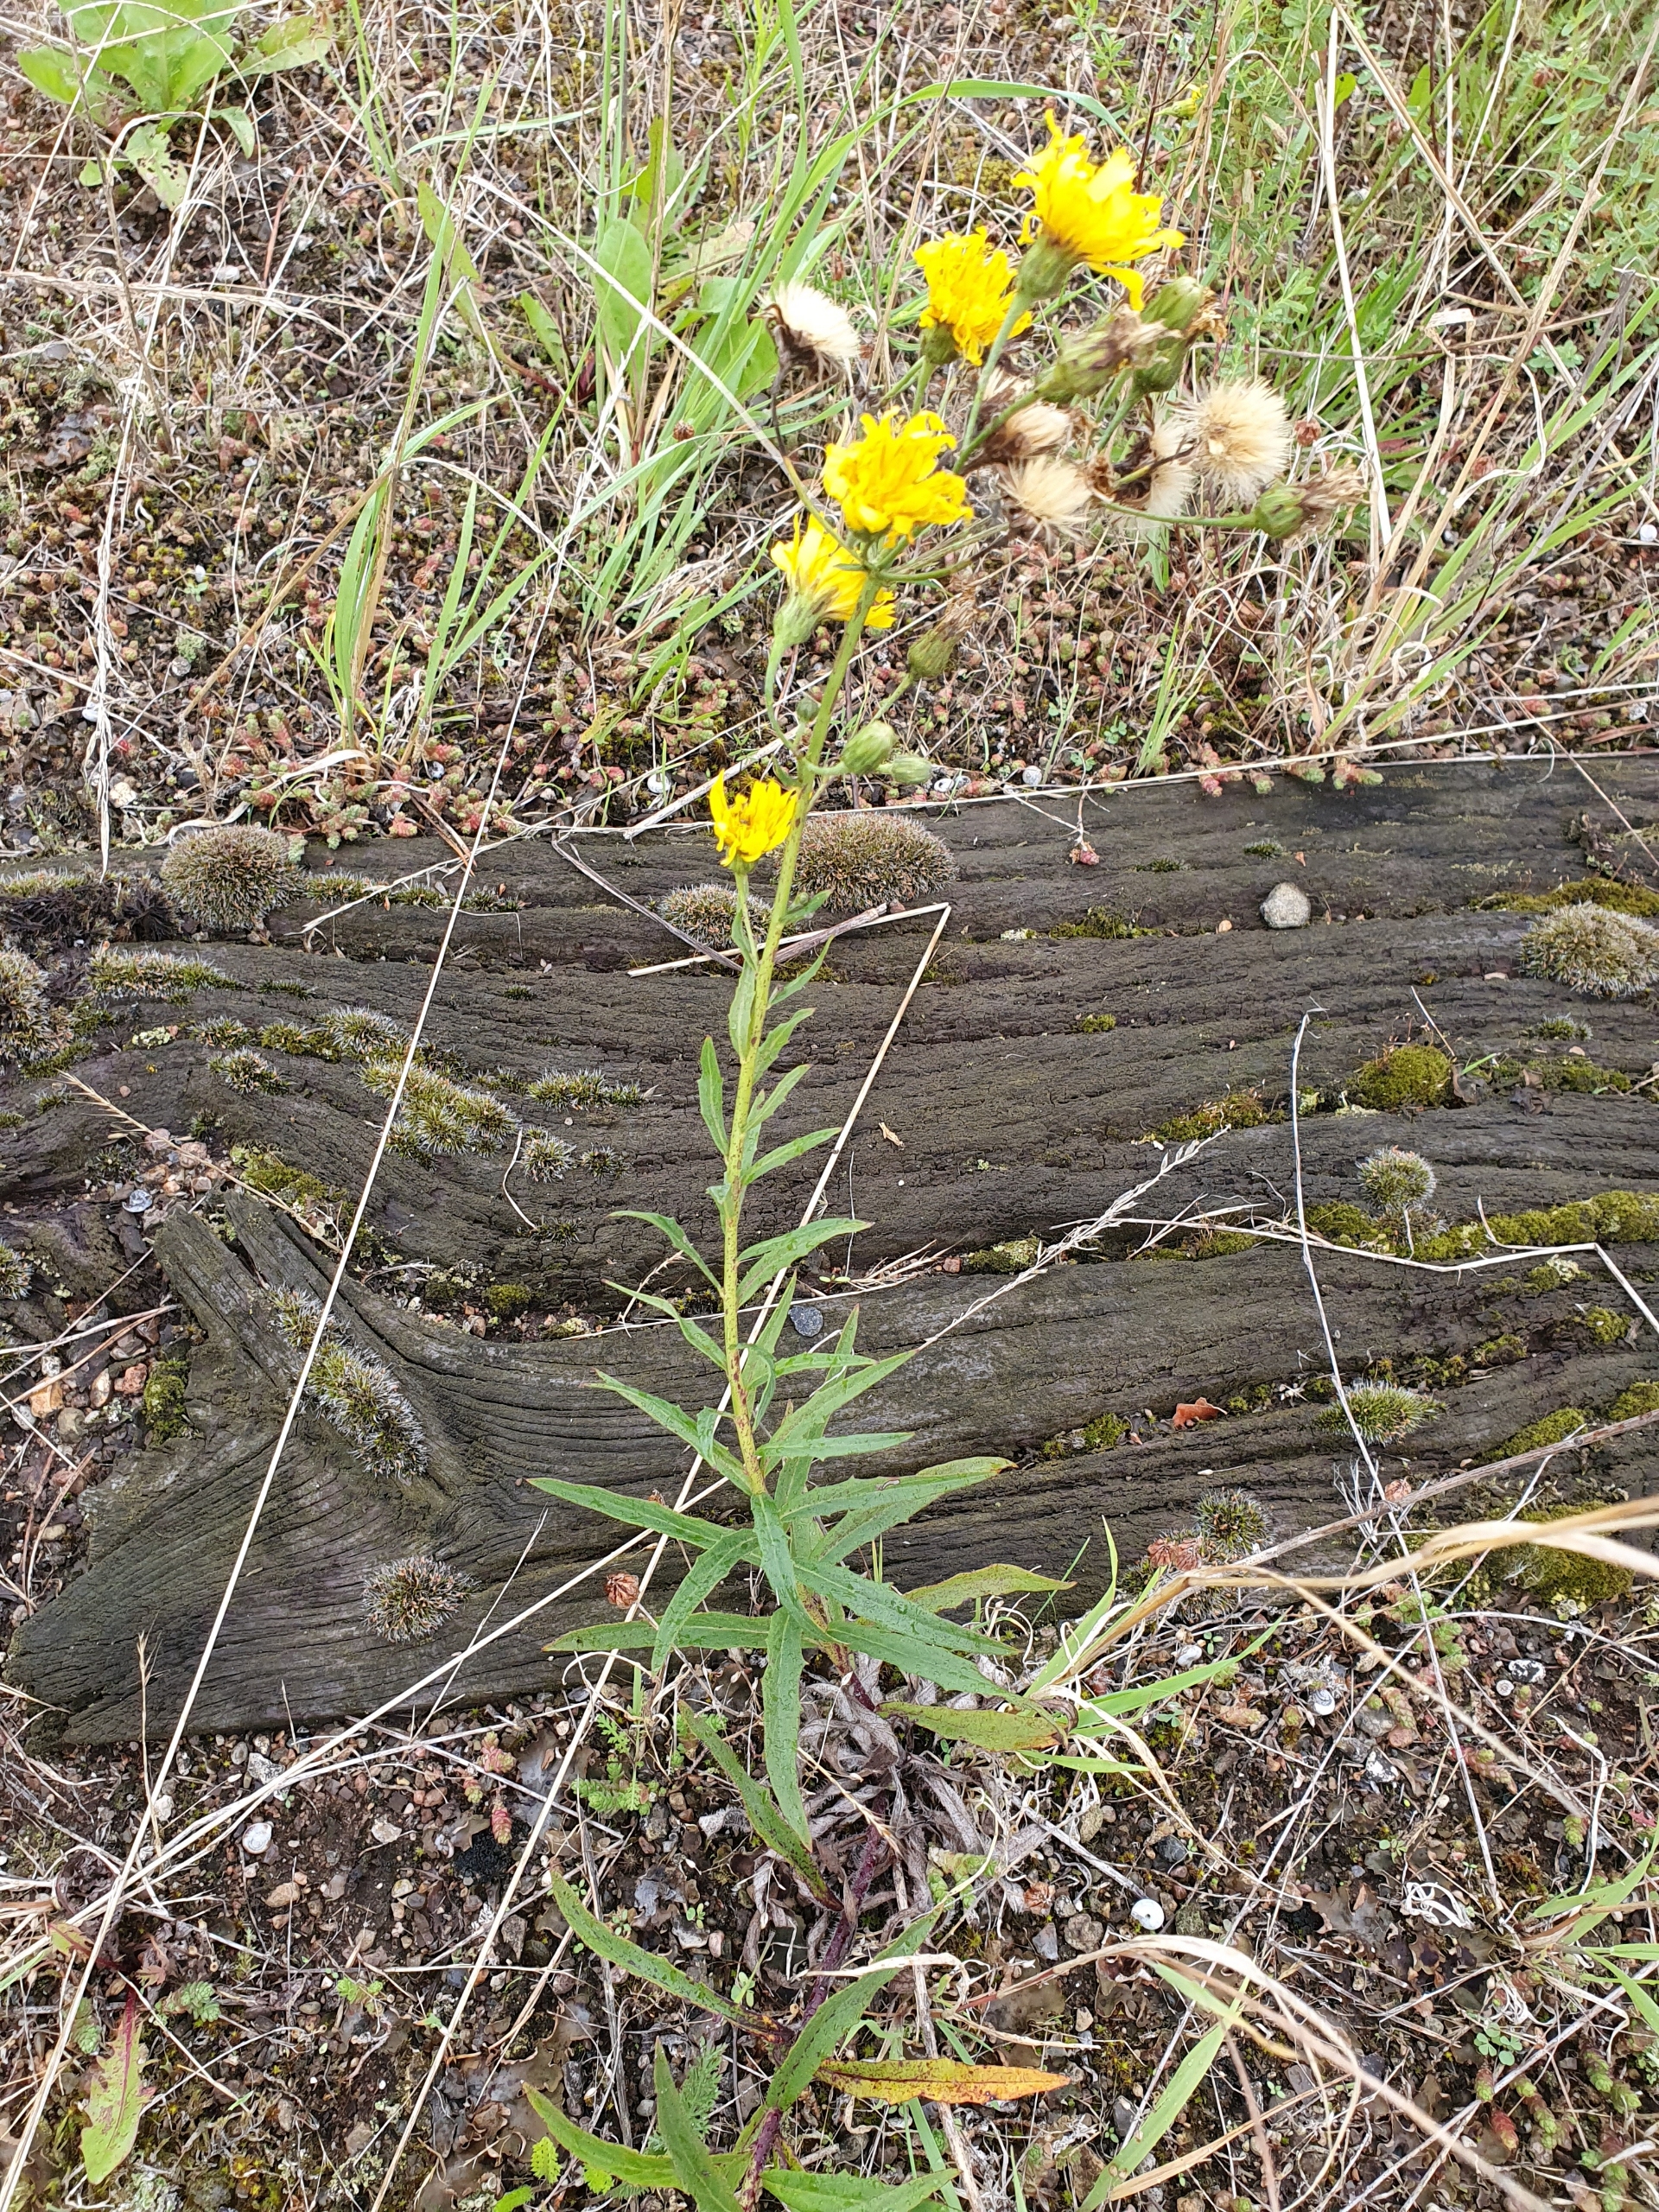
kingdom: Plantae
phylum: Tracheophyta
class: Magnoliopsida
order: Asterales
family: Asteraceae
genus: Hieracium
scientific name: Hieracium umbellatum
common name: Smalbladet høgeurt
